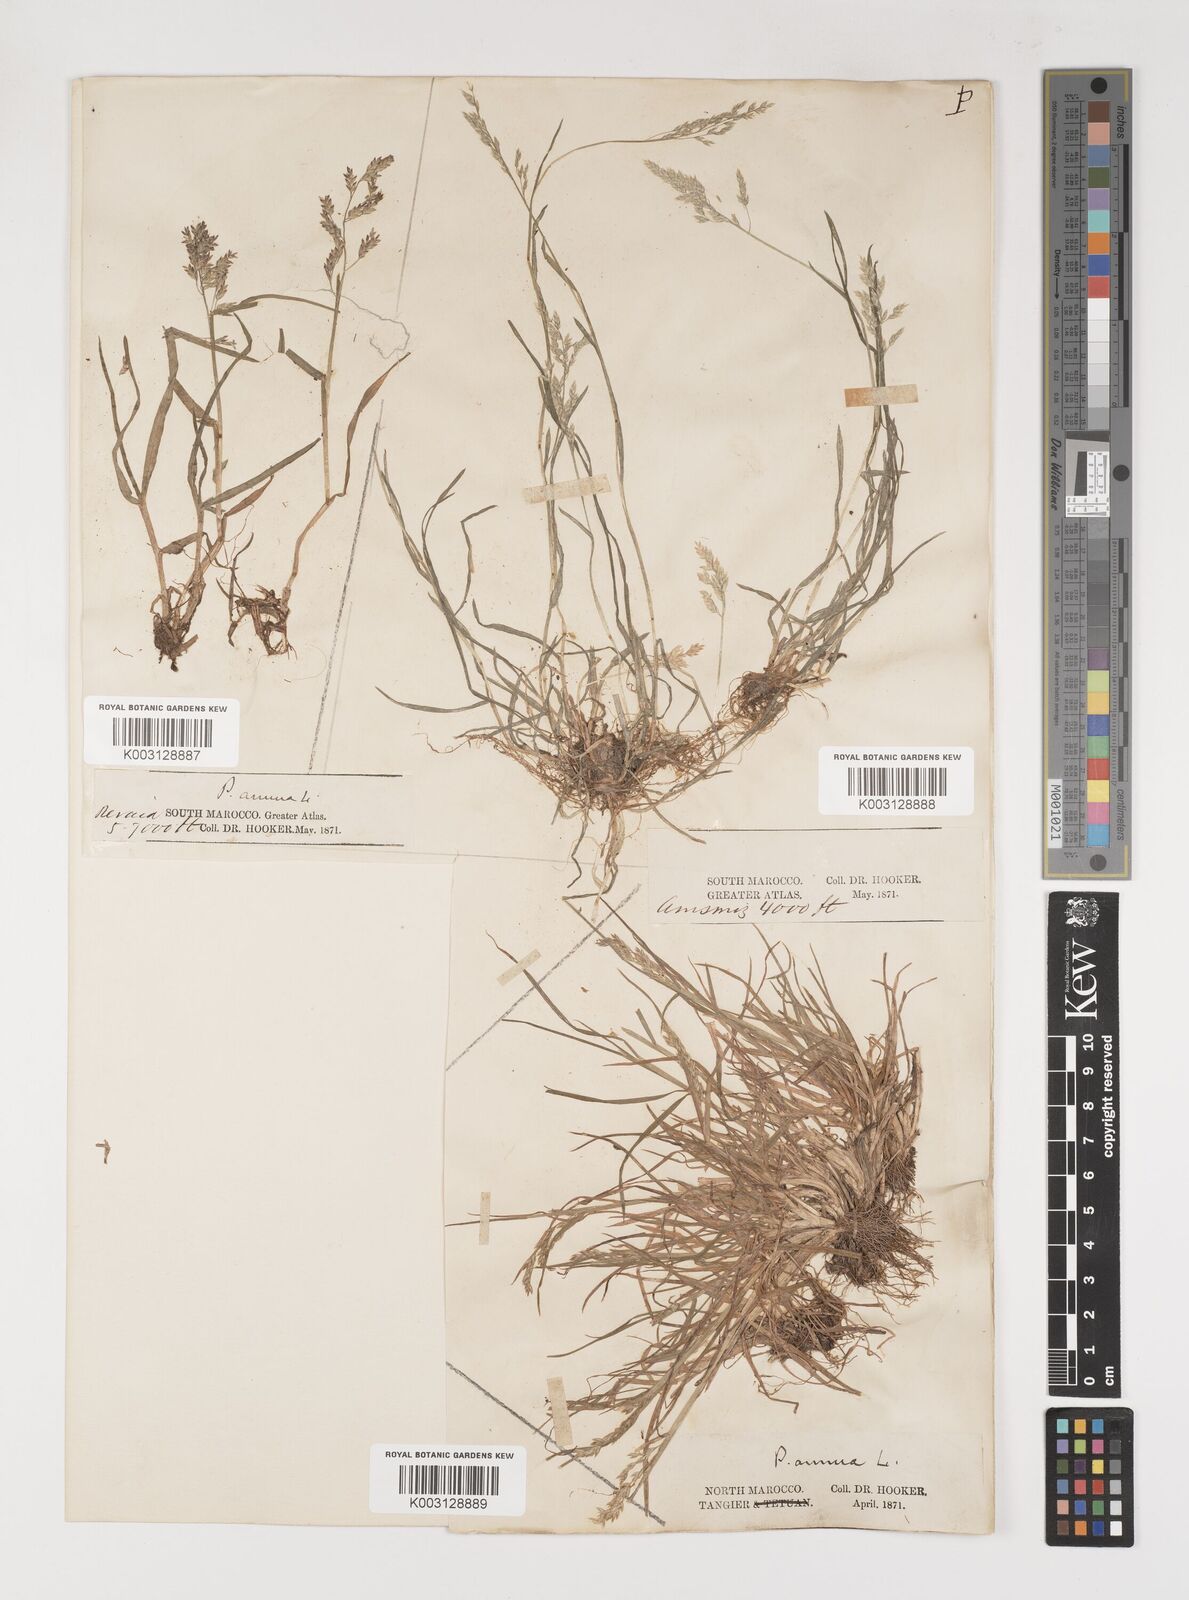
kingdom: Plantae
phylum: Tracheophyta
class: Liliopsida
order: Poales
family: Poaceae
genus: Poa
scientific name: Poa annua
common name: Annual bluegrass
